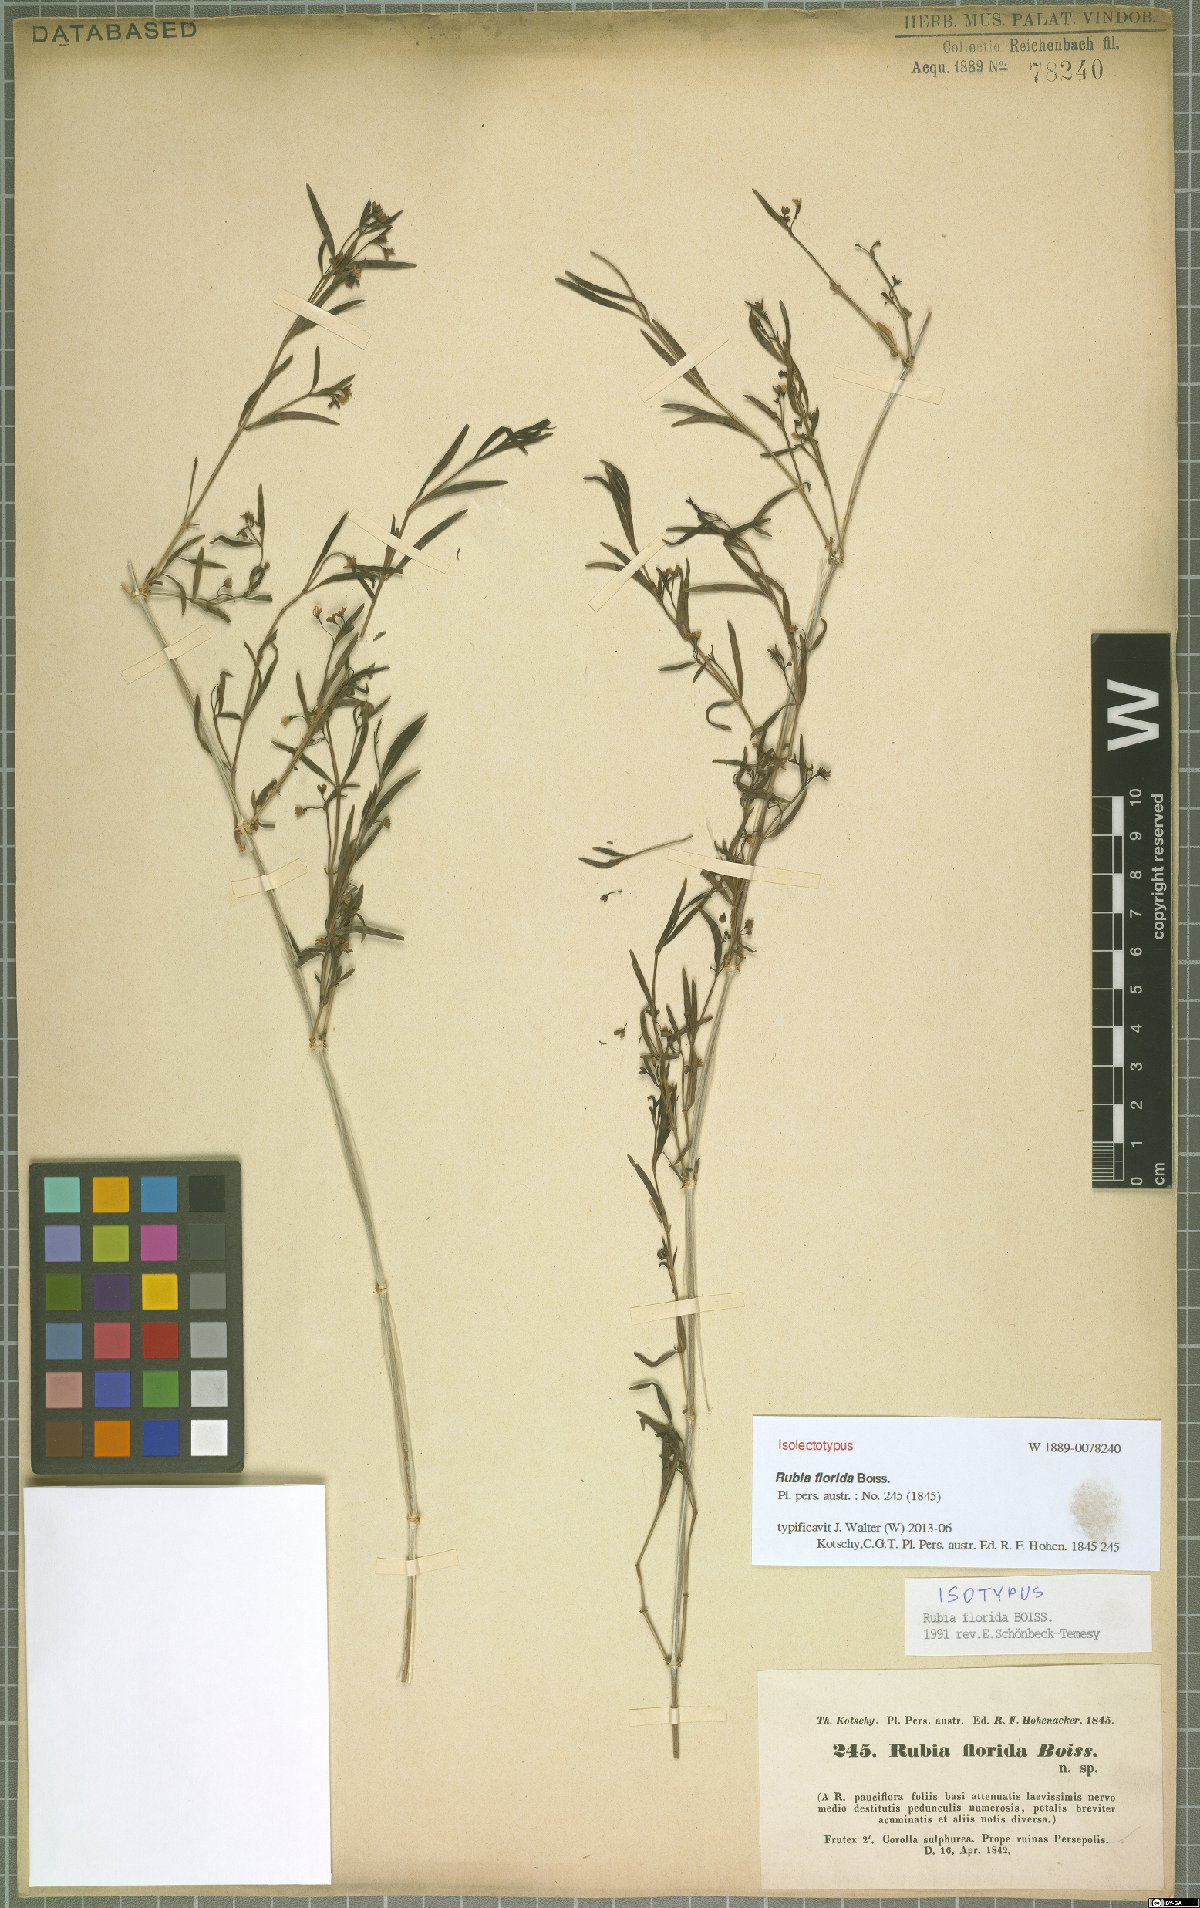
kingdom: Plantae
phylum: Tracheophyta
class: Magnoliopsida
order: Gentianales
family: Rubiaceae
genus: Rubia
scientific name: Rubia florida
